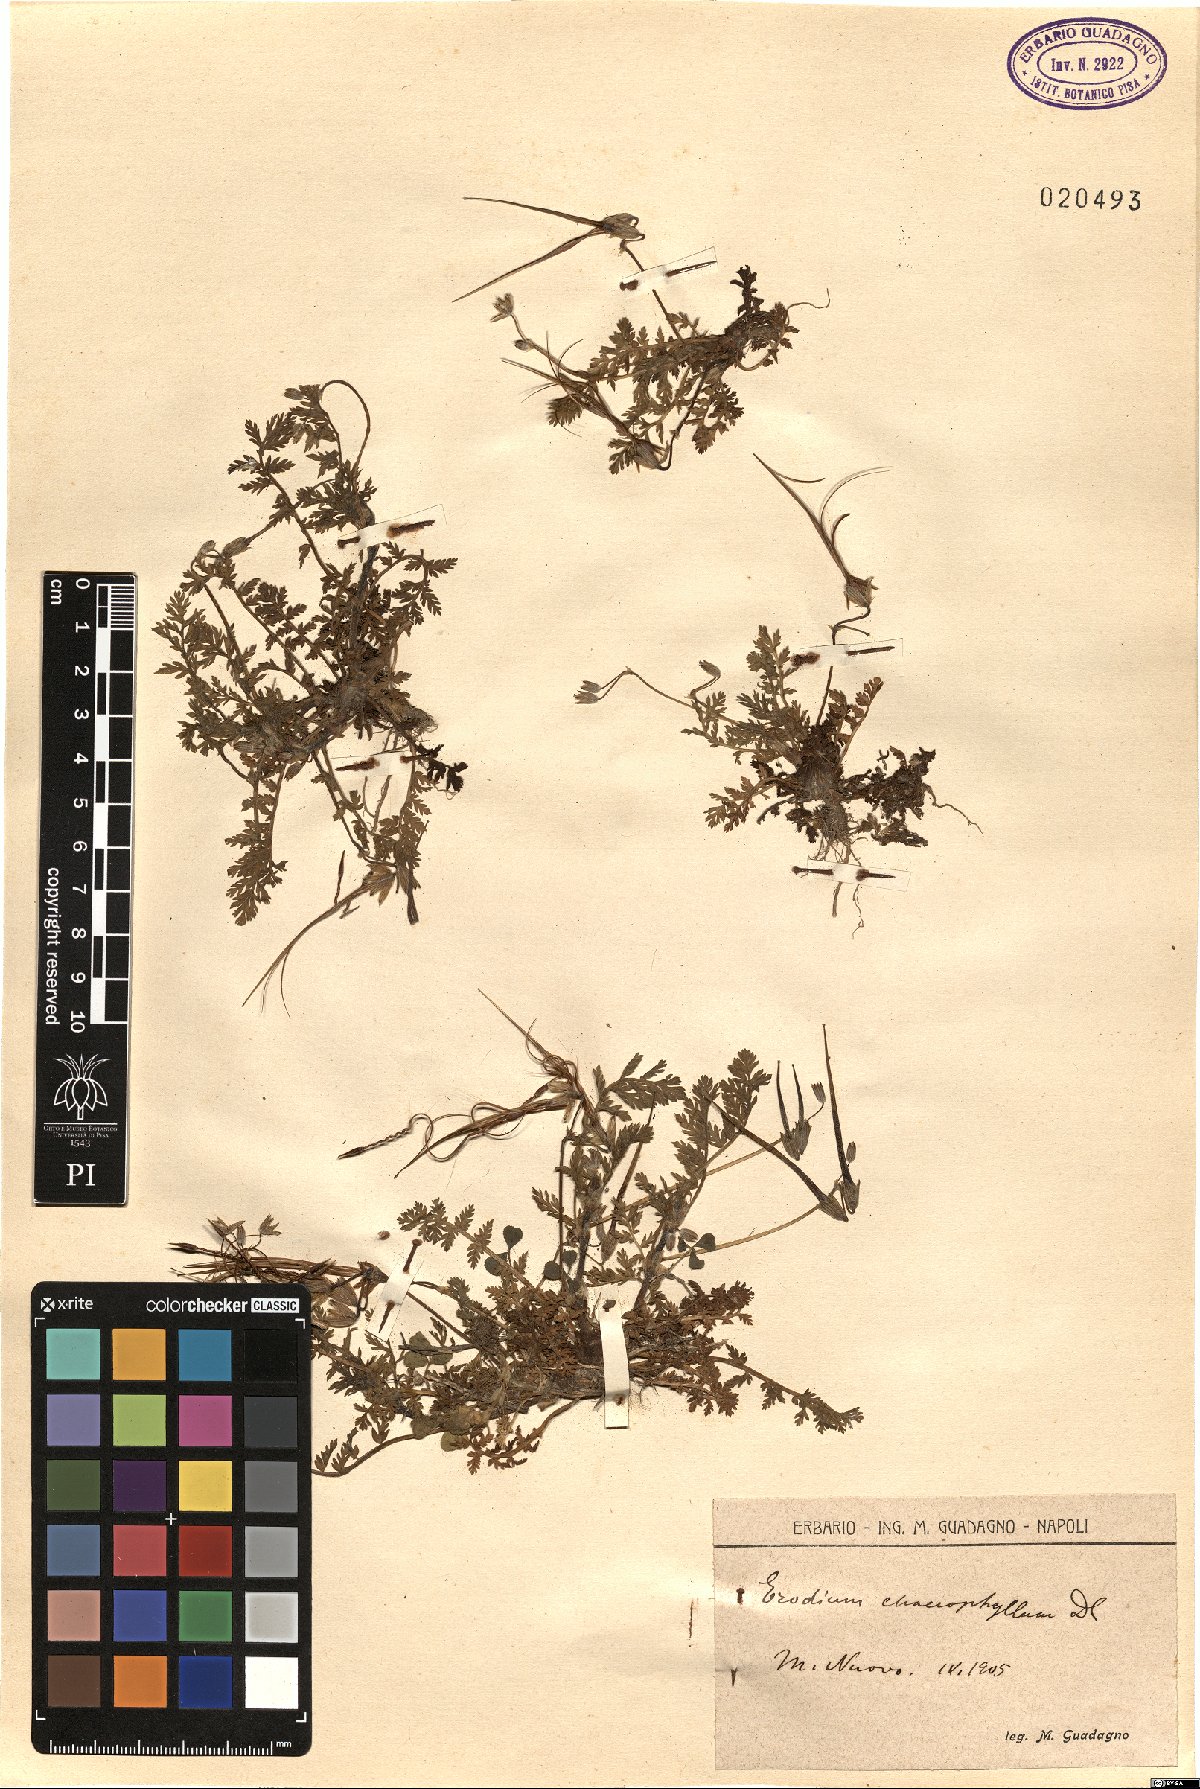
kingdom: Plantae
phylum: Tracheophyta
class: Magnoliopsida
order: Geraniales
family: Geraniaceae
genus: Erodium
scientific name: Erodium cicutarium
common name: Common stork's-bill
